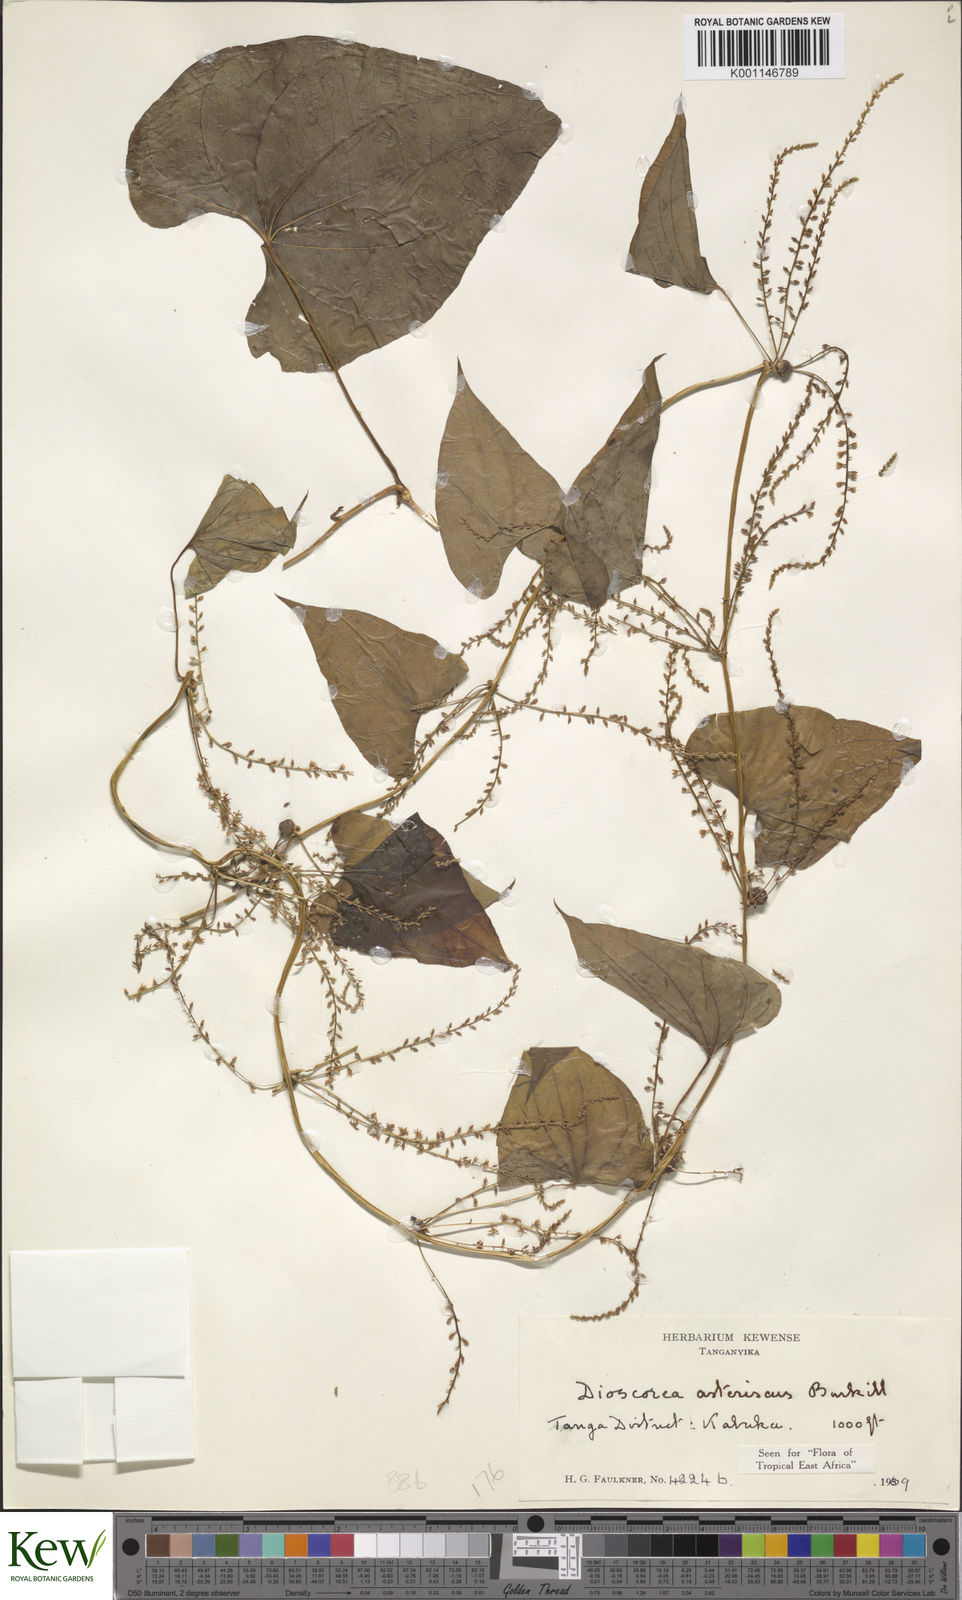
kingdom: Plantae
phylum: Tracheophyta
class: Liliopsida
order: Dioscoreales
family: Dioscoreaceae
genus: Dioscorea
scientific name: Dioscorea asteriscus
